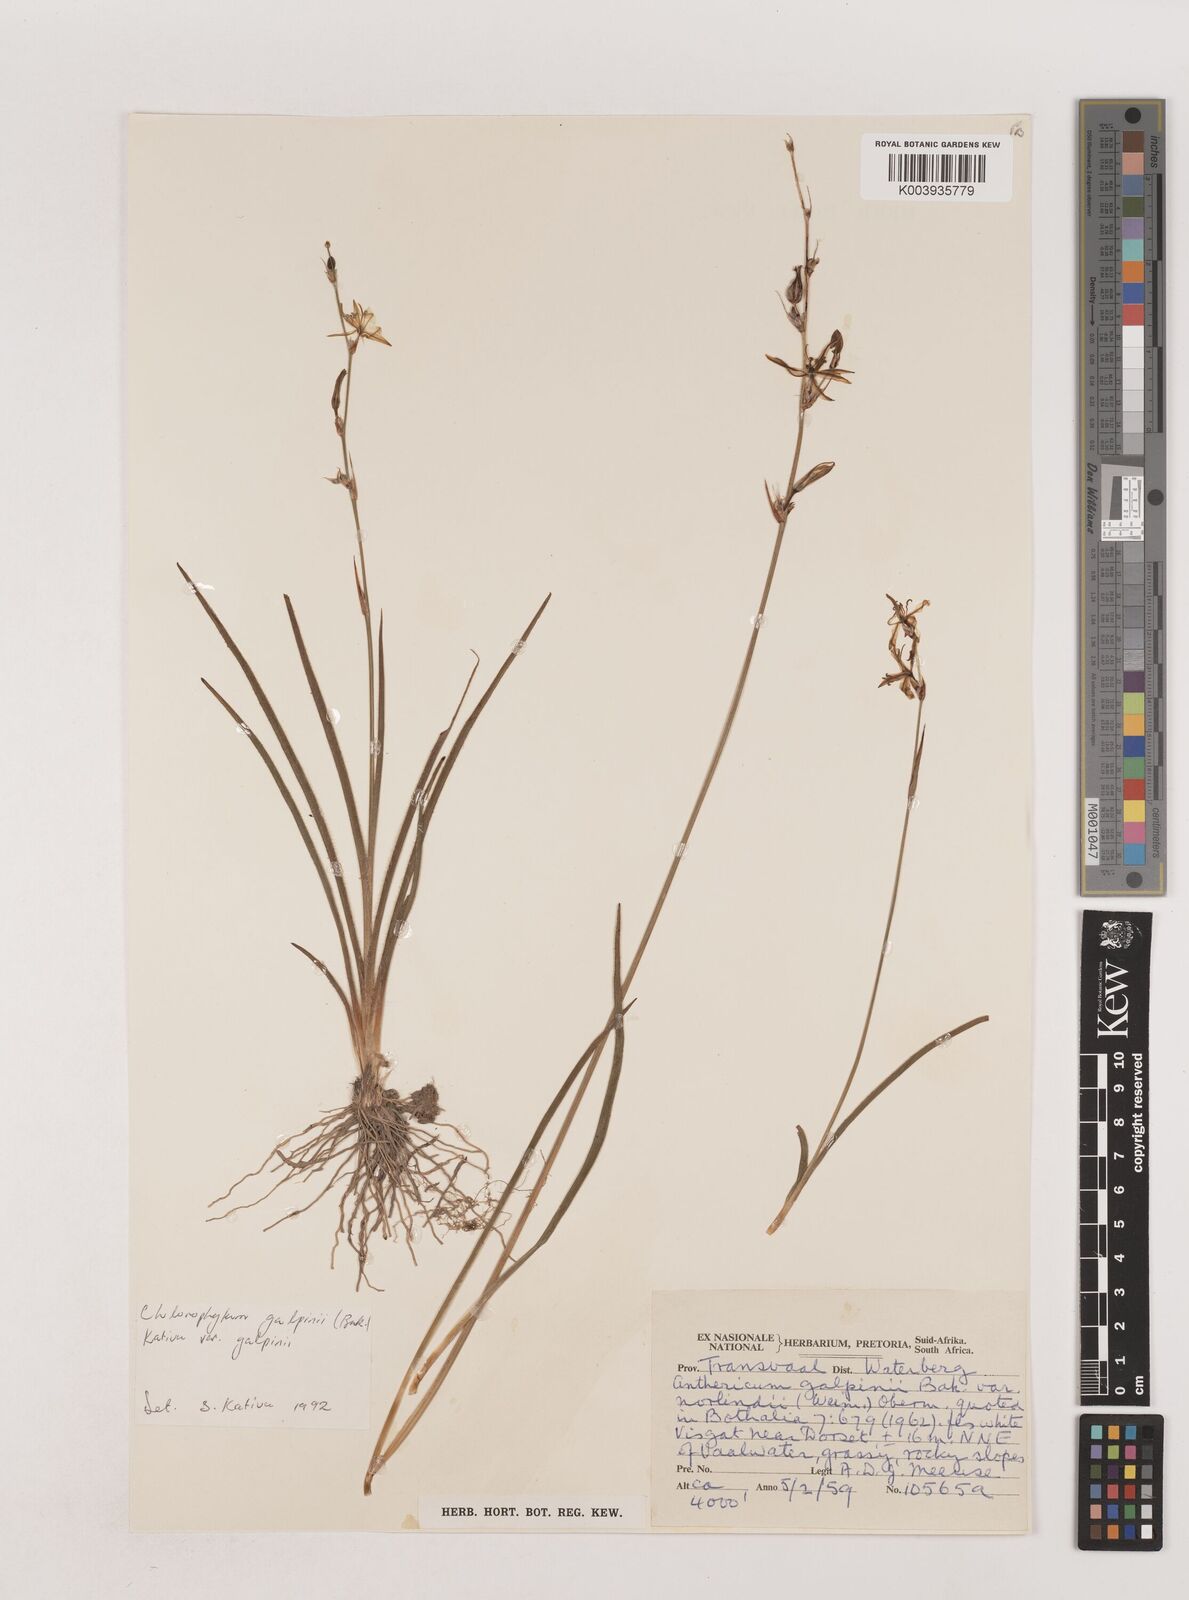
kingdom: Plantae
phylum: Tracheophyta
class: Liliopsida
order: Asparagales
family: Asparagaceae
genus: Chlorophytum
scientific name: Chlorophytum galpinii
